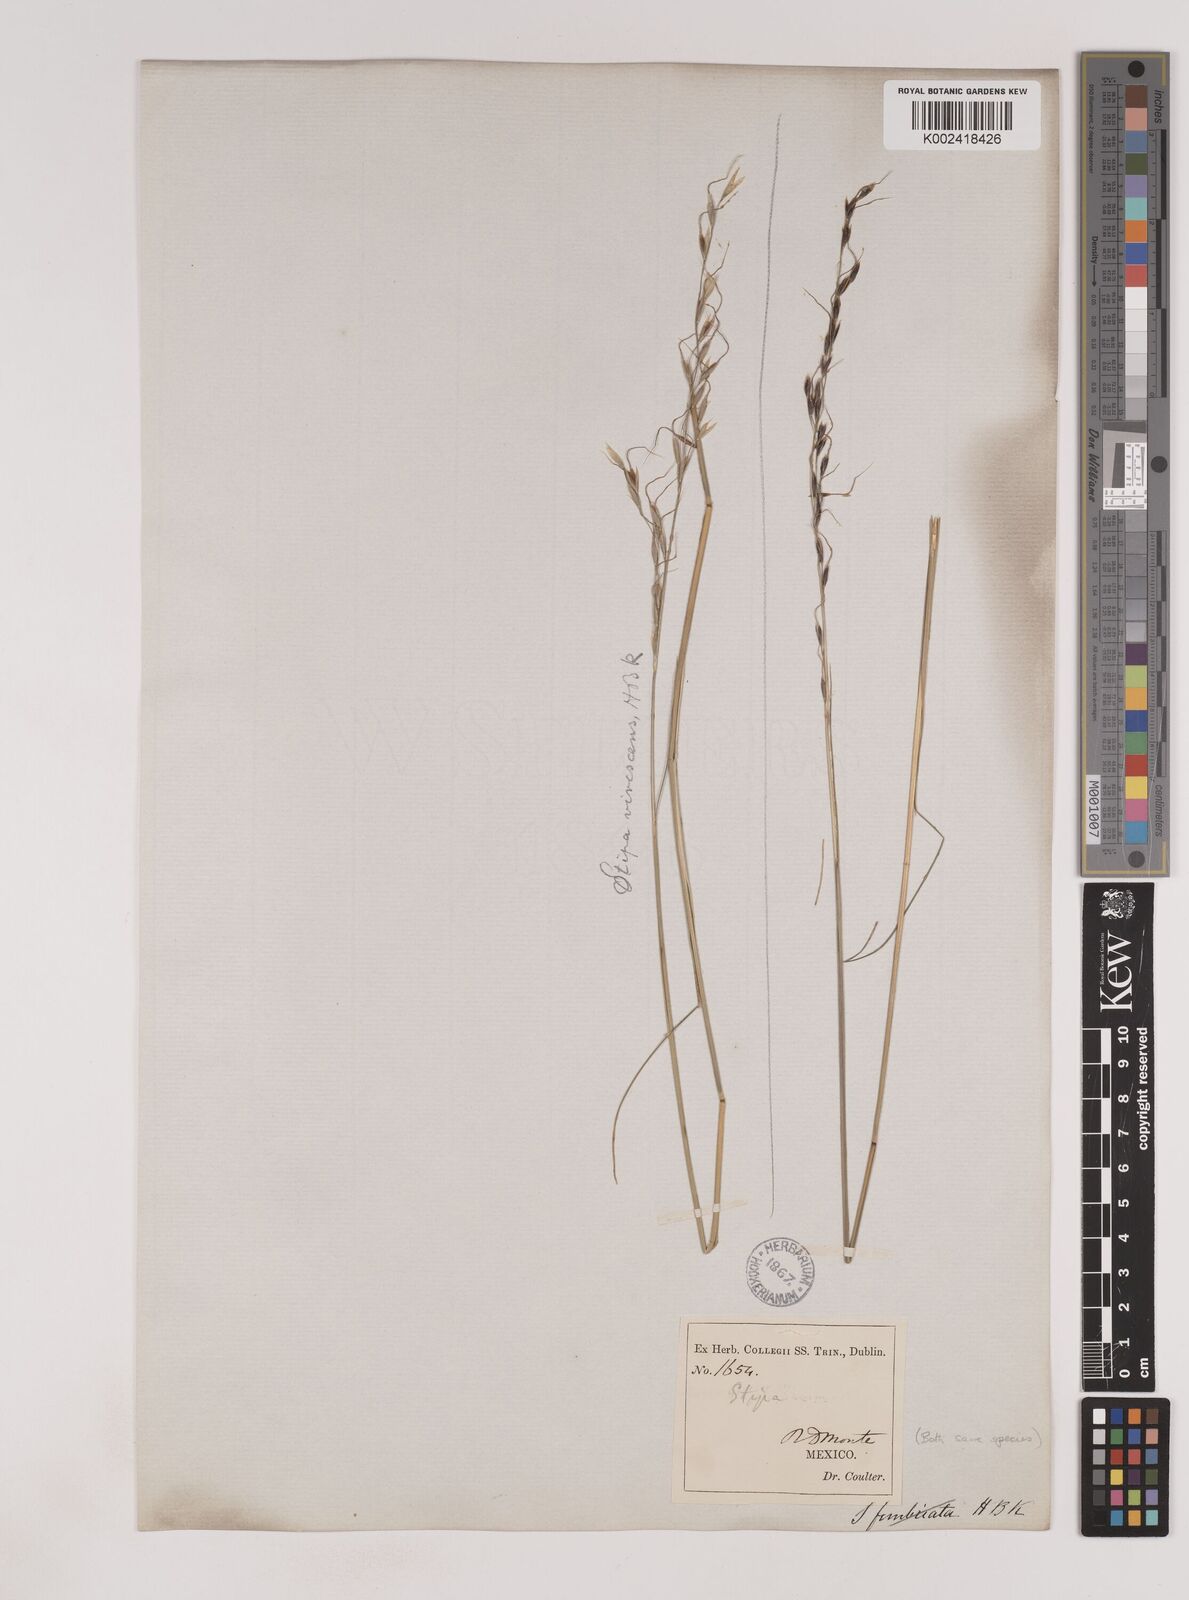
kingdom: Plantae
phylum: Tracheophyta
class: Liliopsida
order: Poales
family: Poaceae
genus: Piptochaetium
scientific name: Piptochaetium virescens
